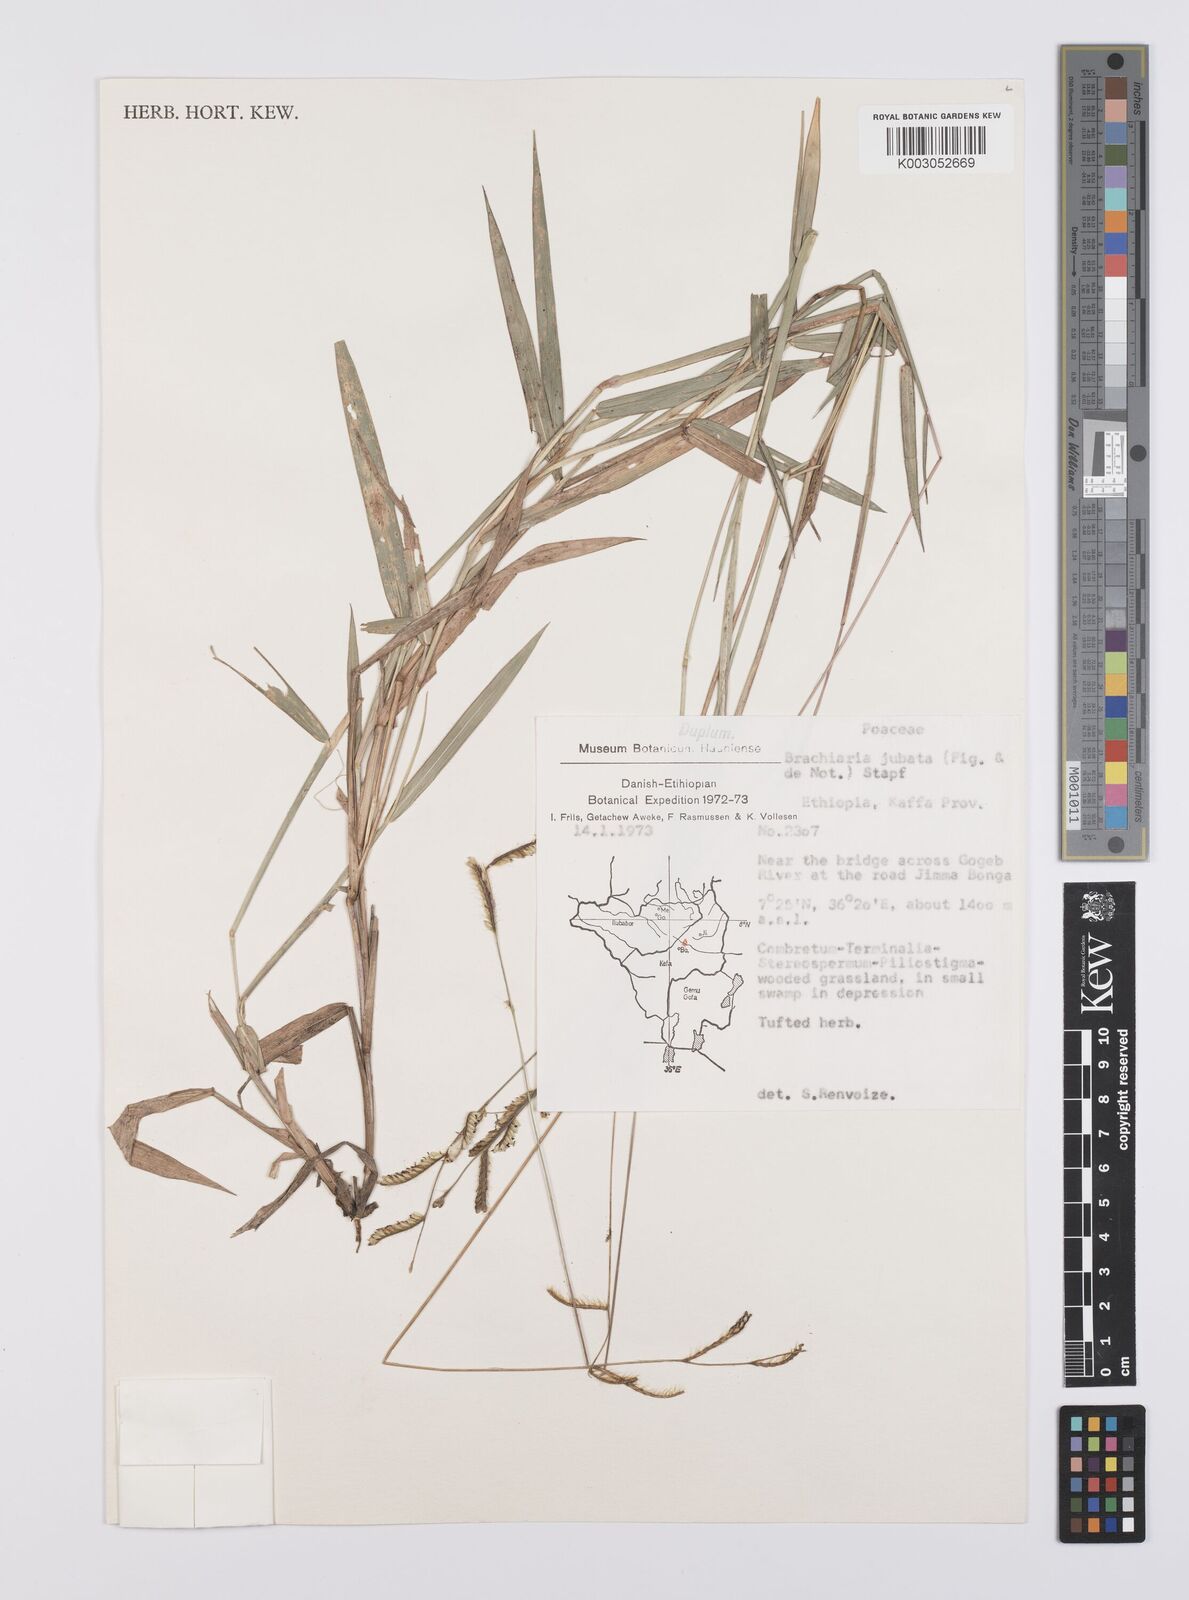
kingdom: Plantae
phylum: Tracheophyta
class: Liliopsida
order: Poales
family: Poaceae
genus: Urochloa
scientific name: Urochloa jubata
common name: Buffalograss
